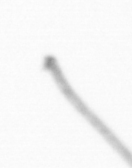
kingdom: Chromista
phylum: Ochrophyta
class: Bacillariophyceae
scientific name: Bacillariophyceae
